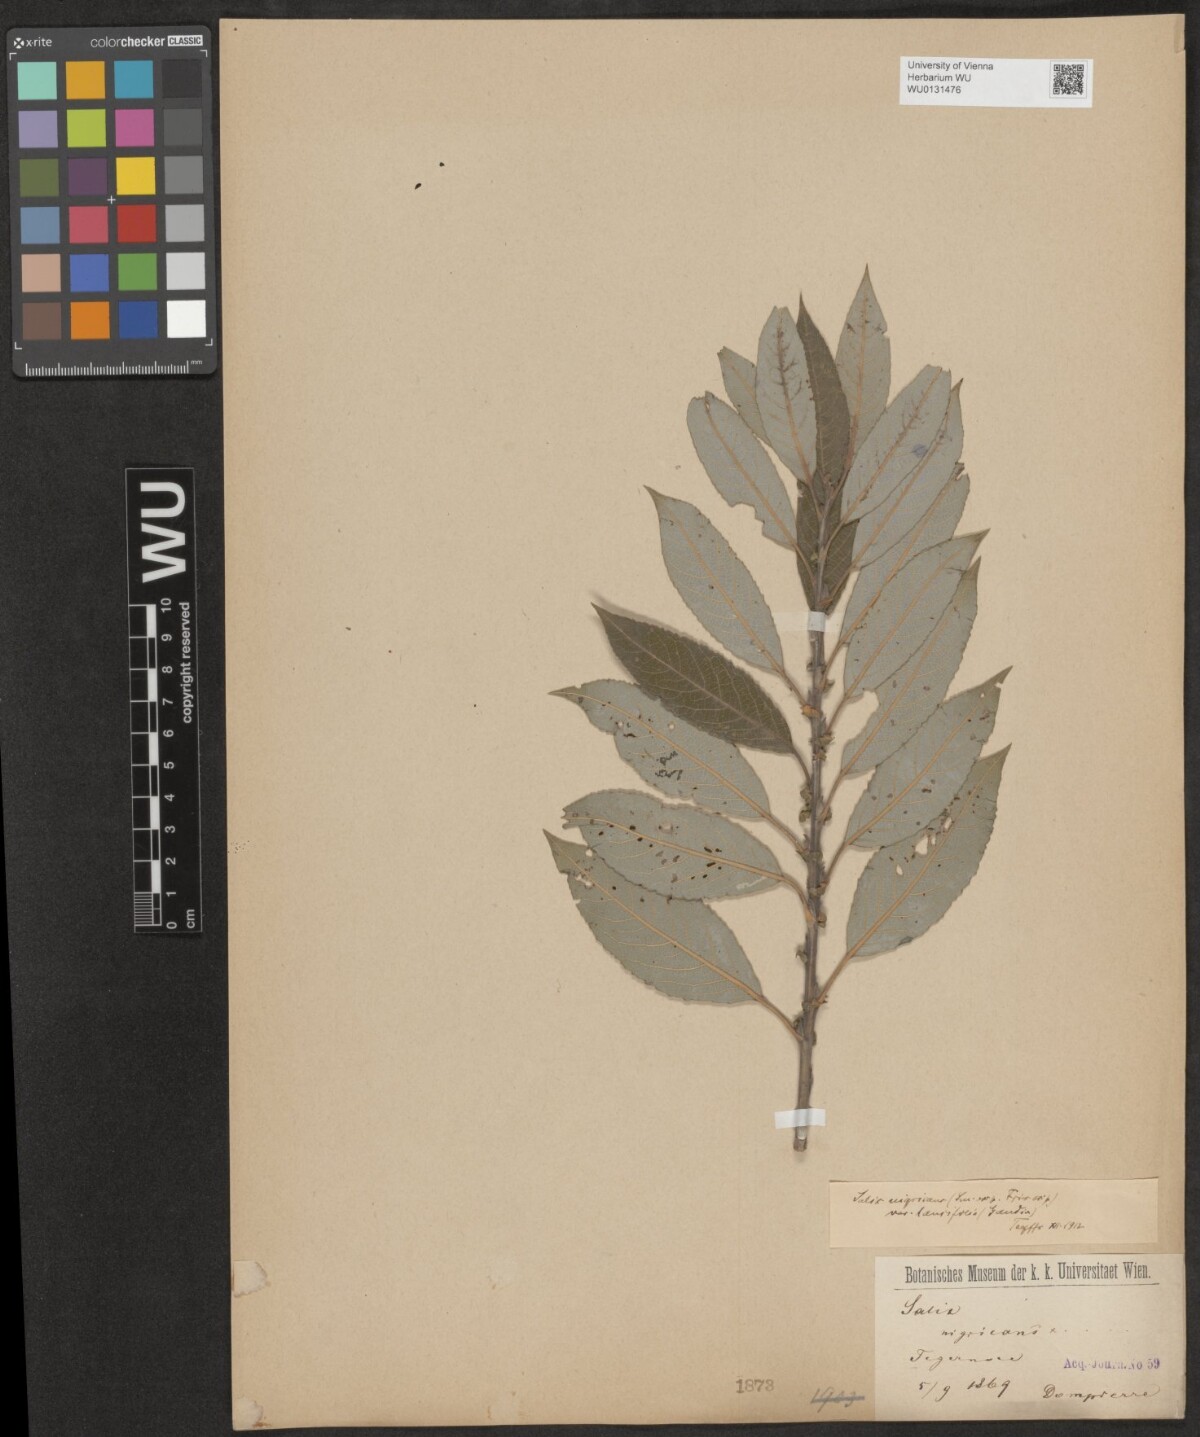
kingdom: Plantae
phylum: Tracheophyta
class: Magnoliopsida
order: Malpighiales
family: Salicaceae
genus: Salix
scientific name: Salix myrsinifolia
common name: Dark-leaved willow
